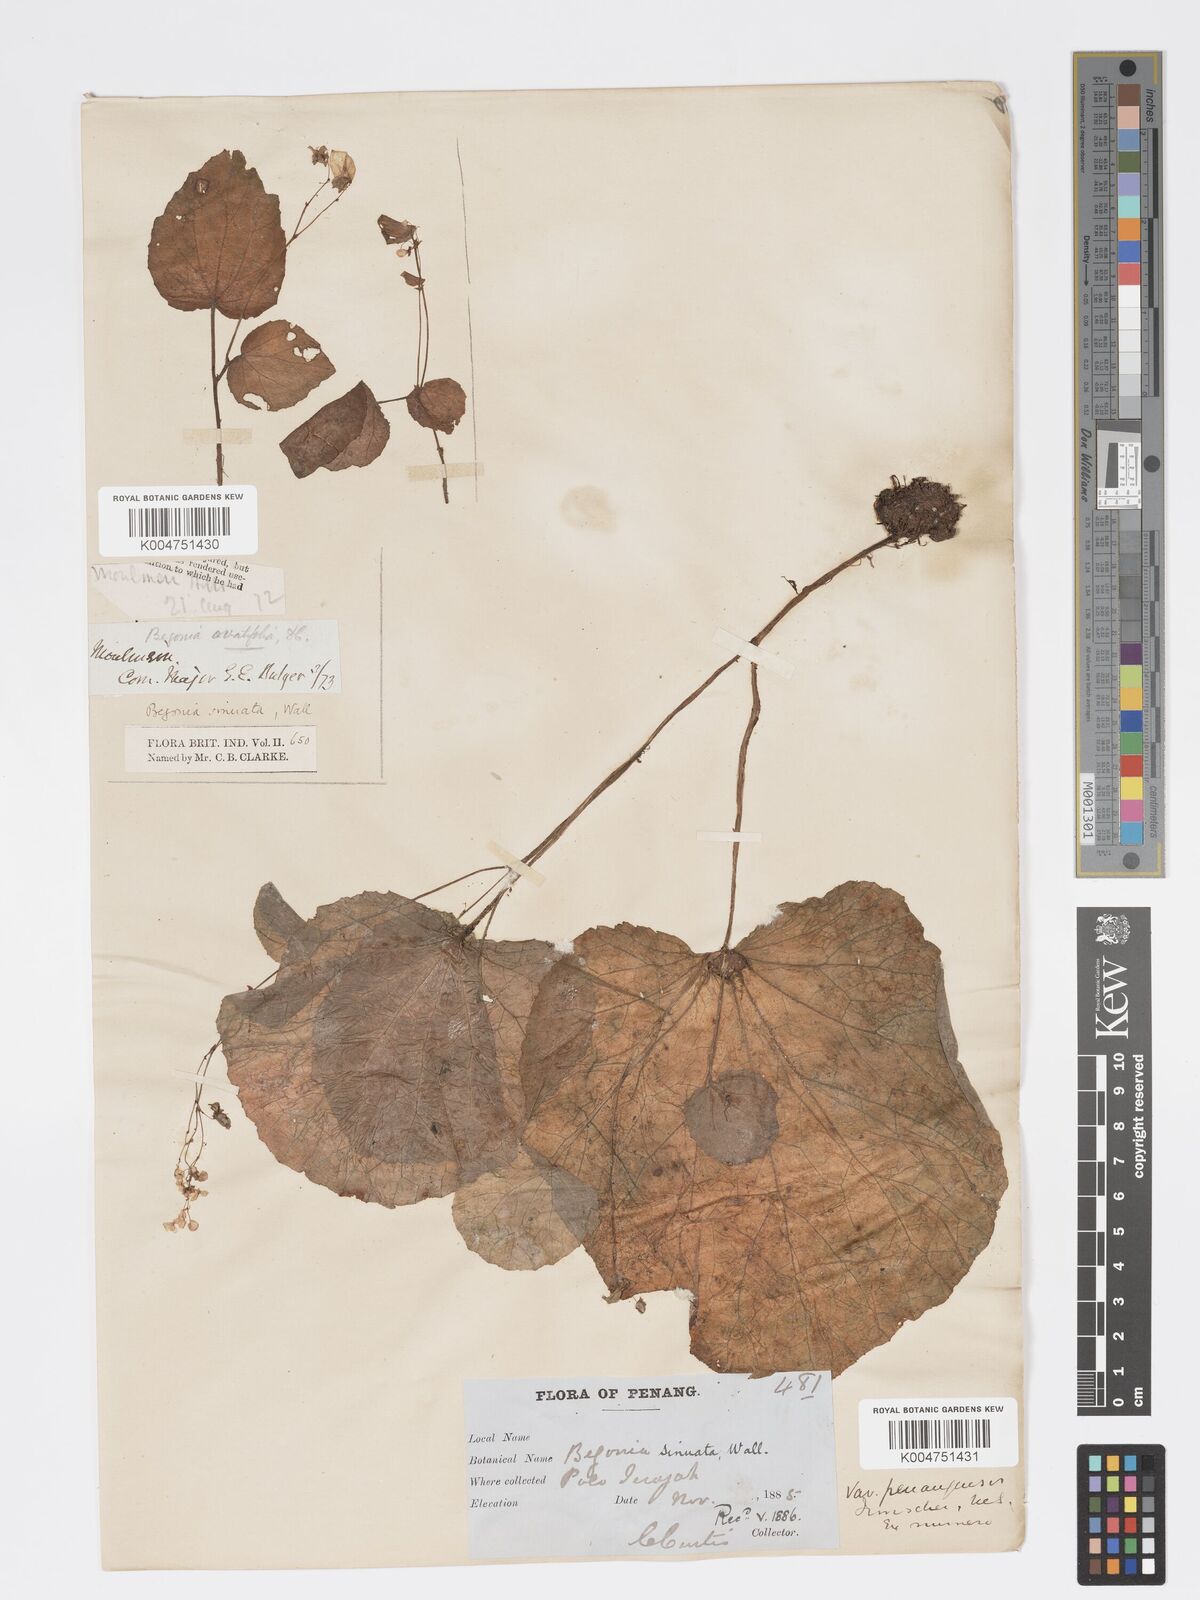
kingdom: Plantae
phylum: Tracheophyta
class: Magnoliopsida
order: Cucurbitales
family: Begoniaceae
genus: Begonia
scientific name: Begonia
